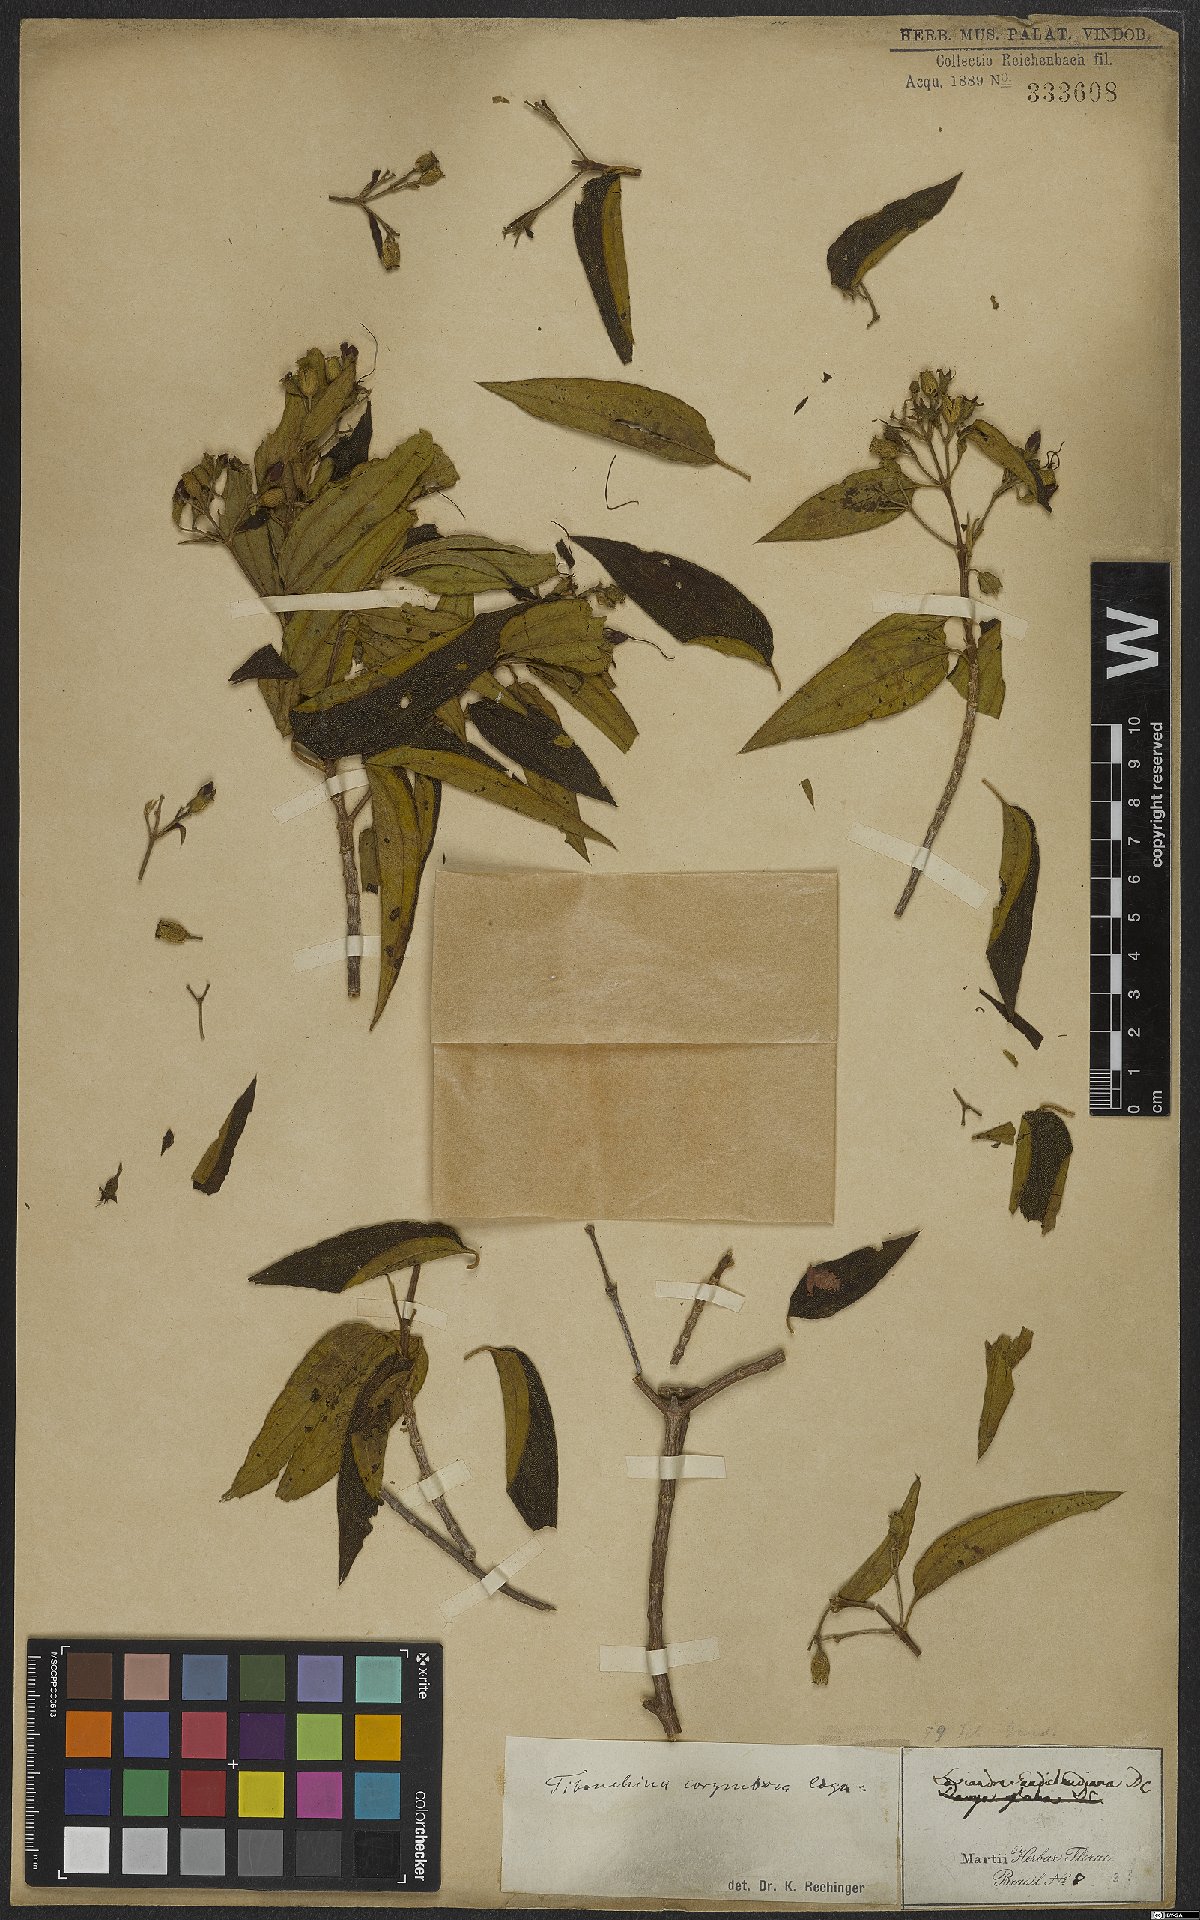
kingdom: Plantae
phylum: Tracheophyta
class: Magnoliopsida
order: Myrtales
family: Melastomataceae
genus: Pleroma
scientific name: Pleroma vimineum
